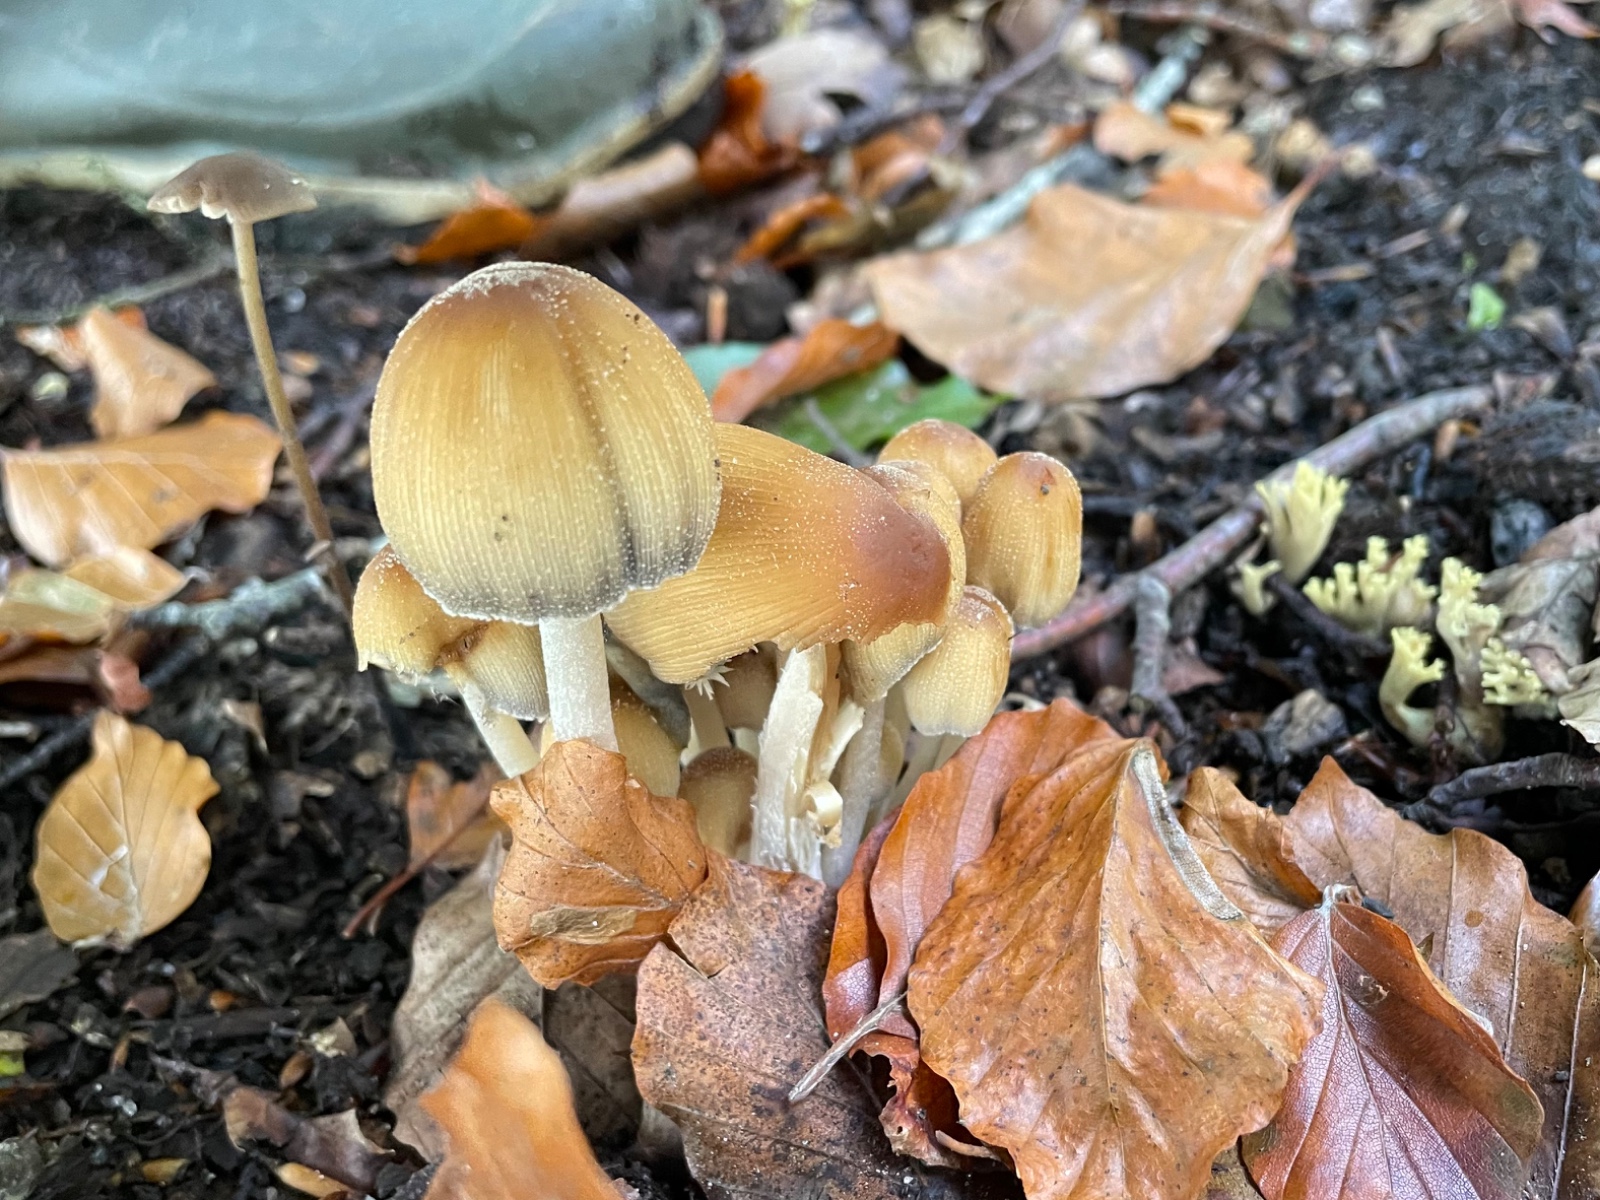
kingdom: Fungi
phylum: Basidiomycota
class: Agaricomycetes
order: Agaricales
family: Psathyrellaceae
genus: Coprinellus
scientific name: Coprinellus micaceus
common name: glimmer-blækhat
